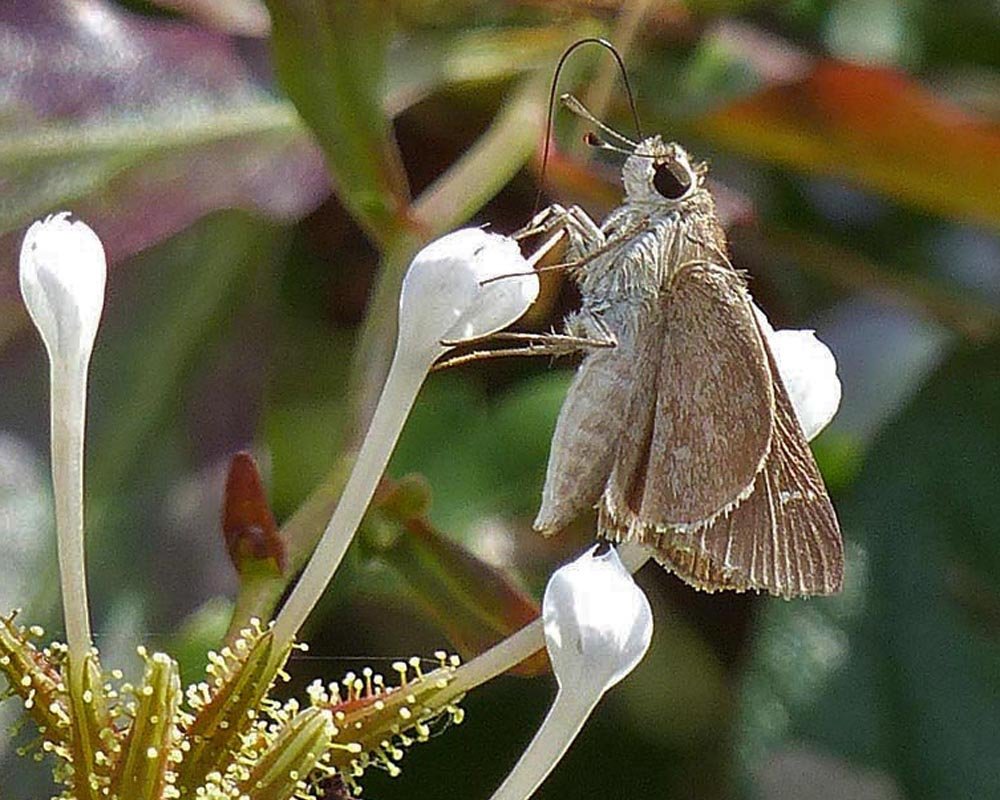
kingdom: Animalia
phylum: Arthropoda
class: Insecta
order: Lepidoptera
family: Hesperiidae
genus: Lerodea
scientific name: Lerodea eufala
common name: Eufala Skipper
